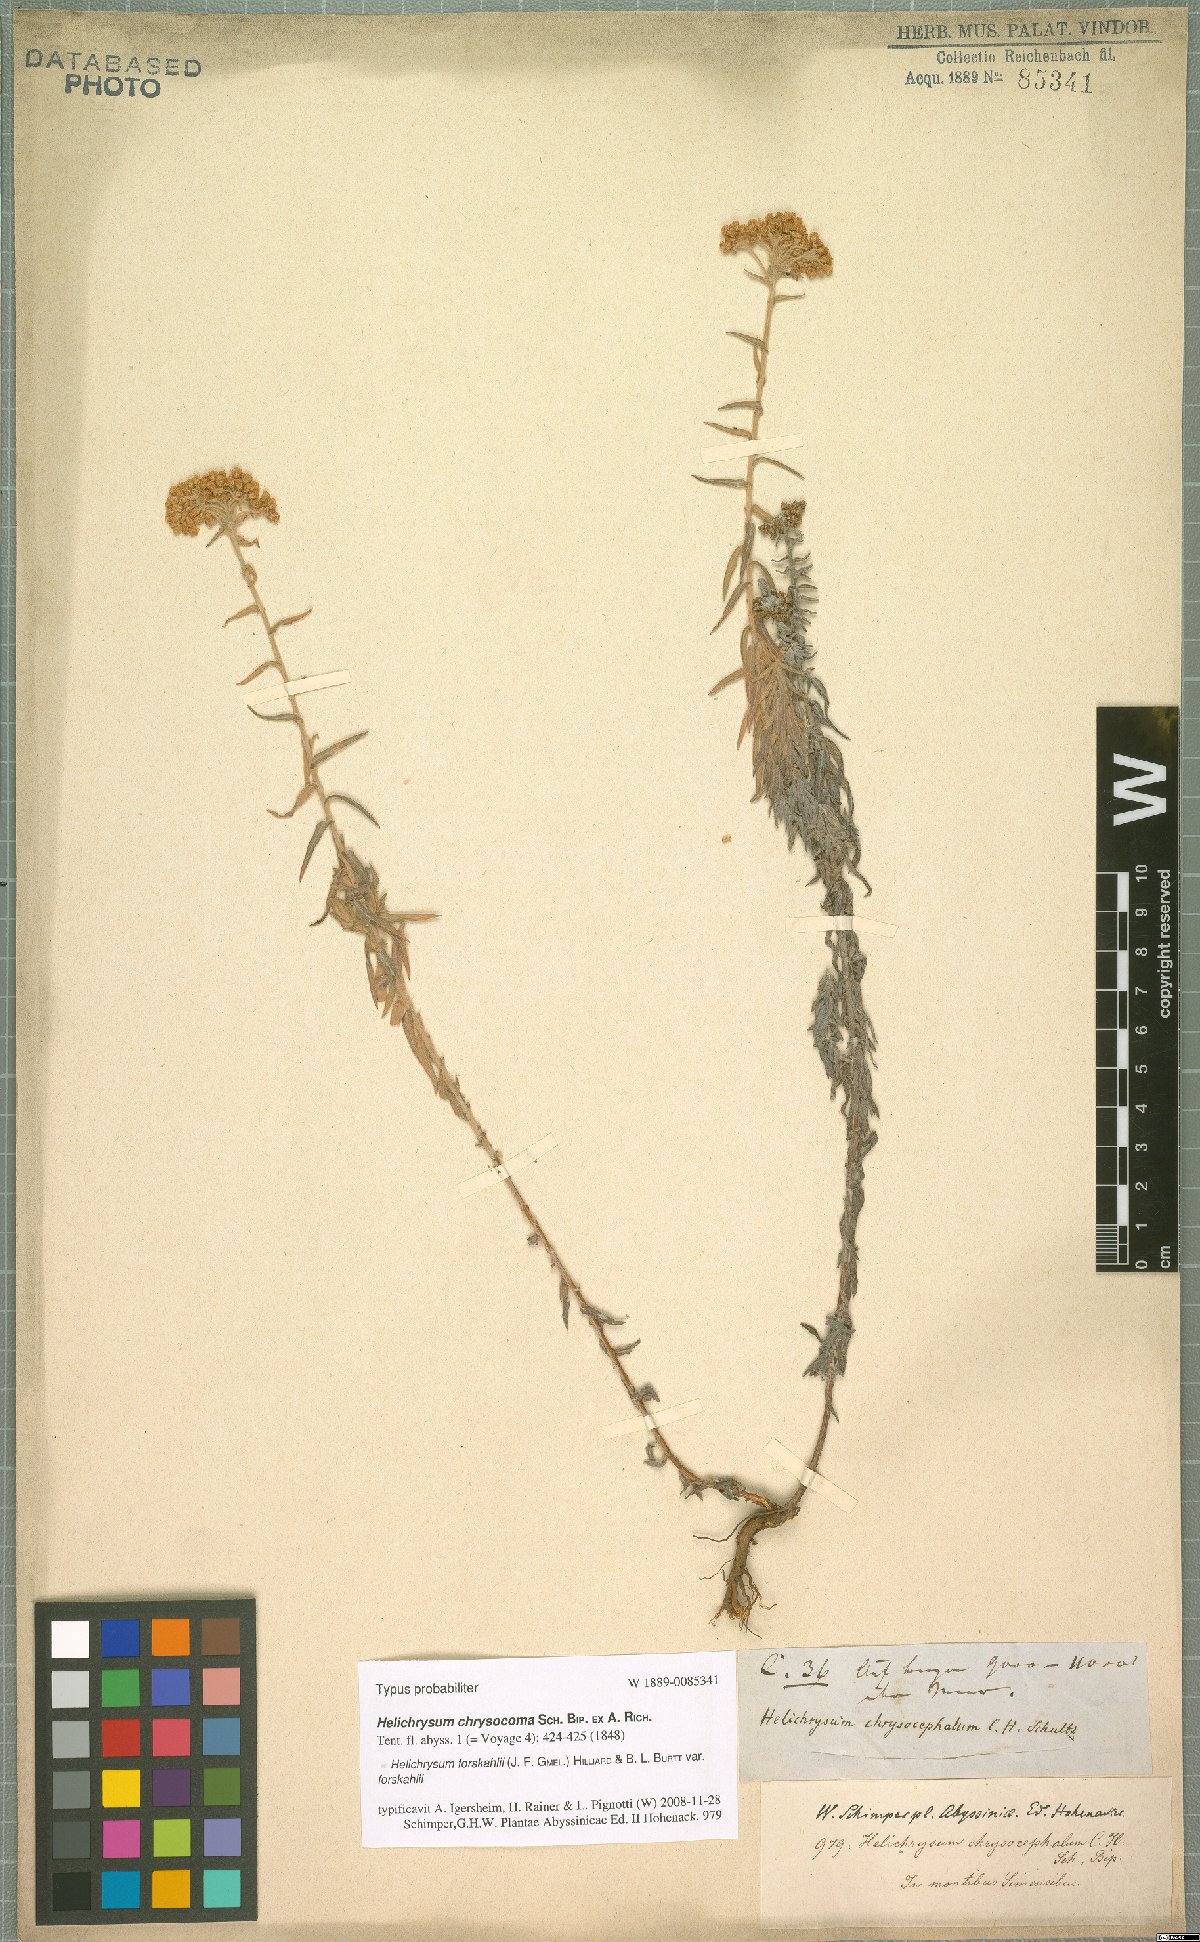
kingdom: Plantae
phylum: Tracheophyta
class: Magnoliopsida
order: Asterales
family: Asteraceae
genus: Helichrysum
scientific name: Helichrysum forskahlii
